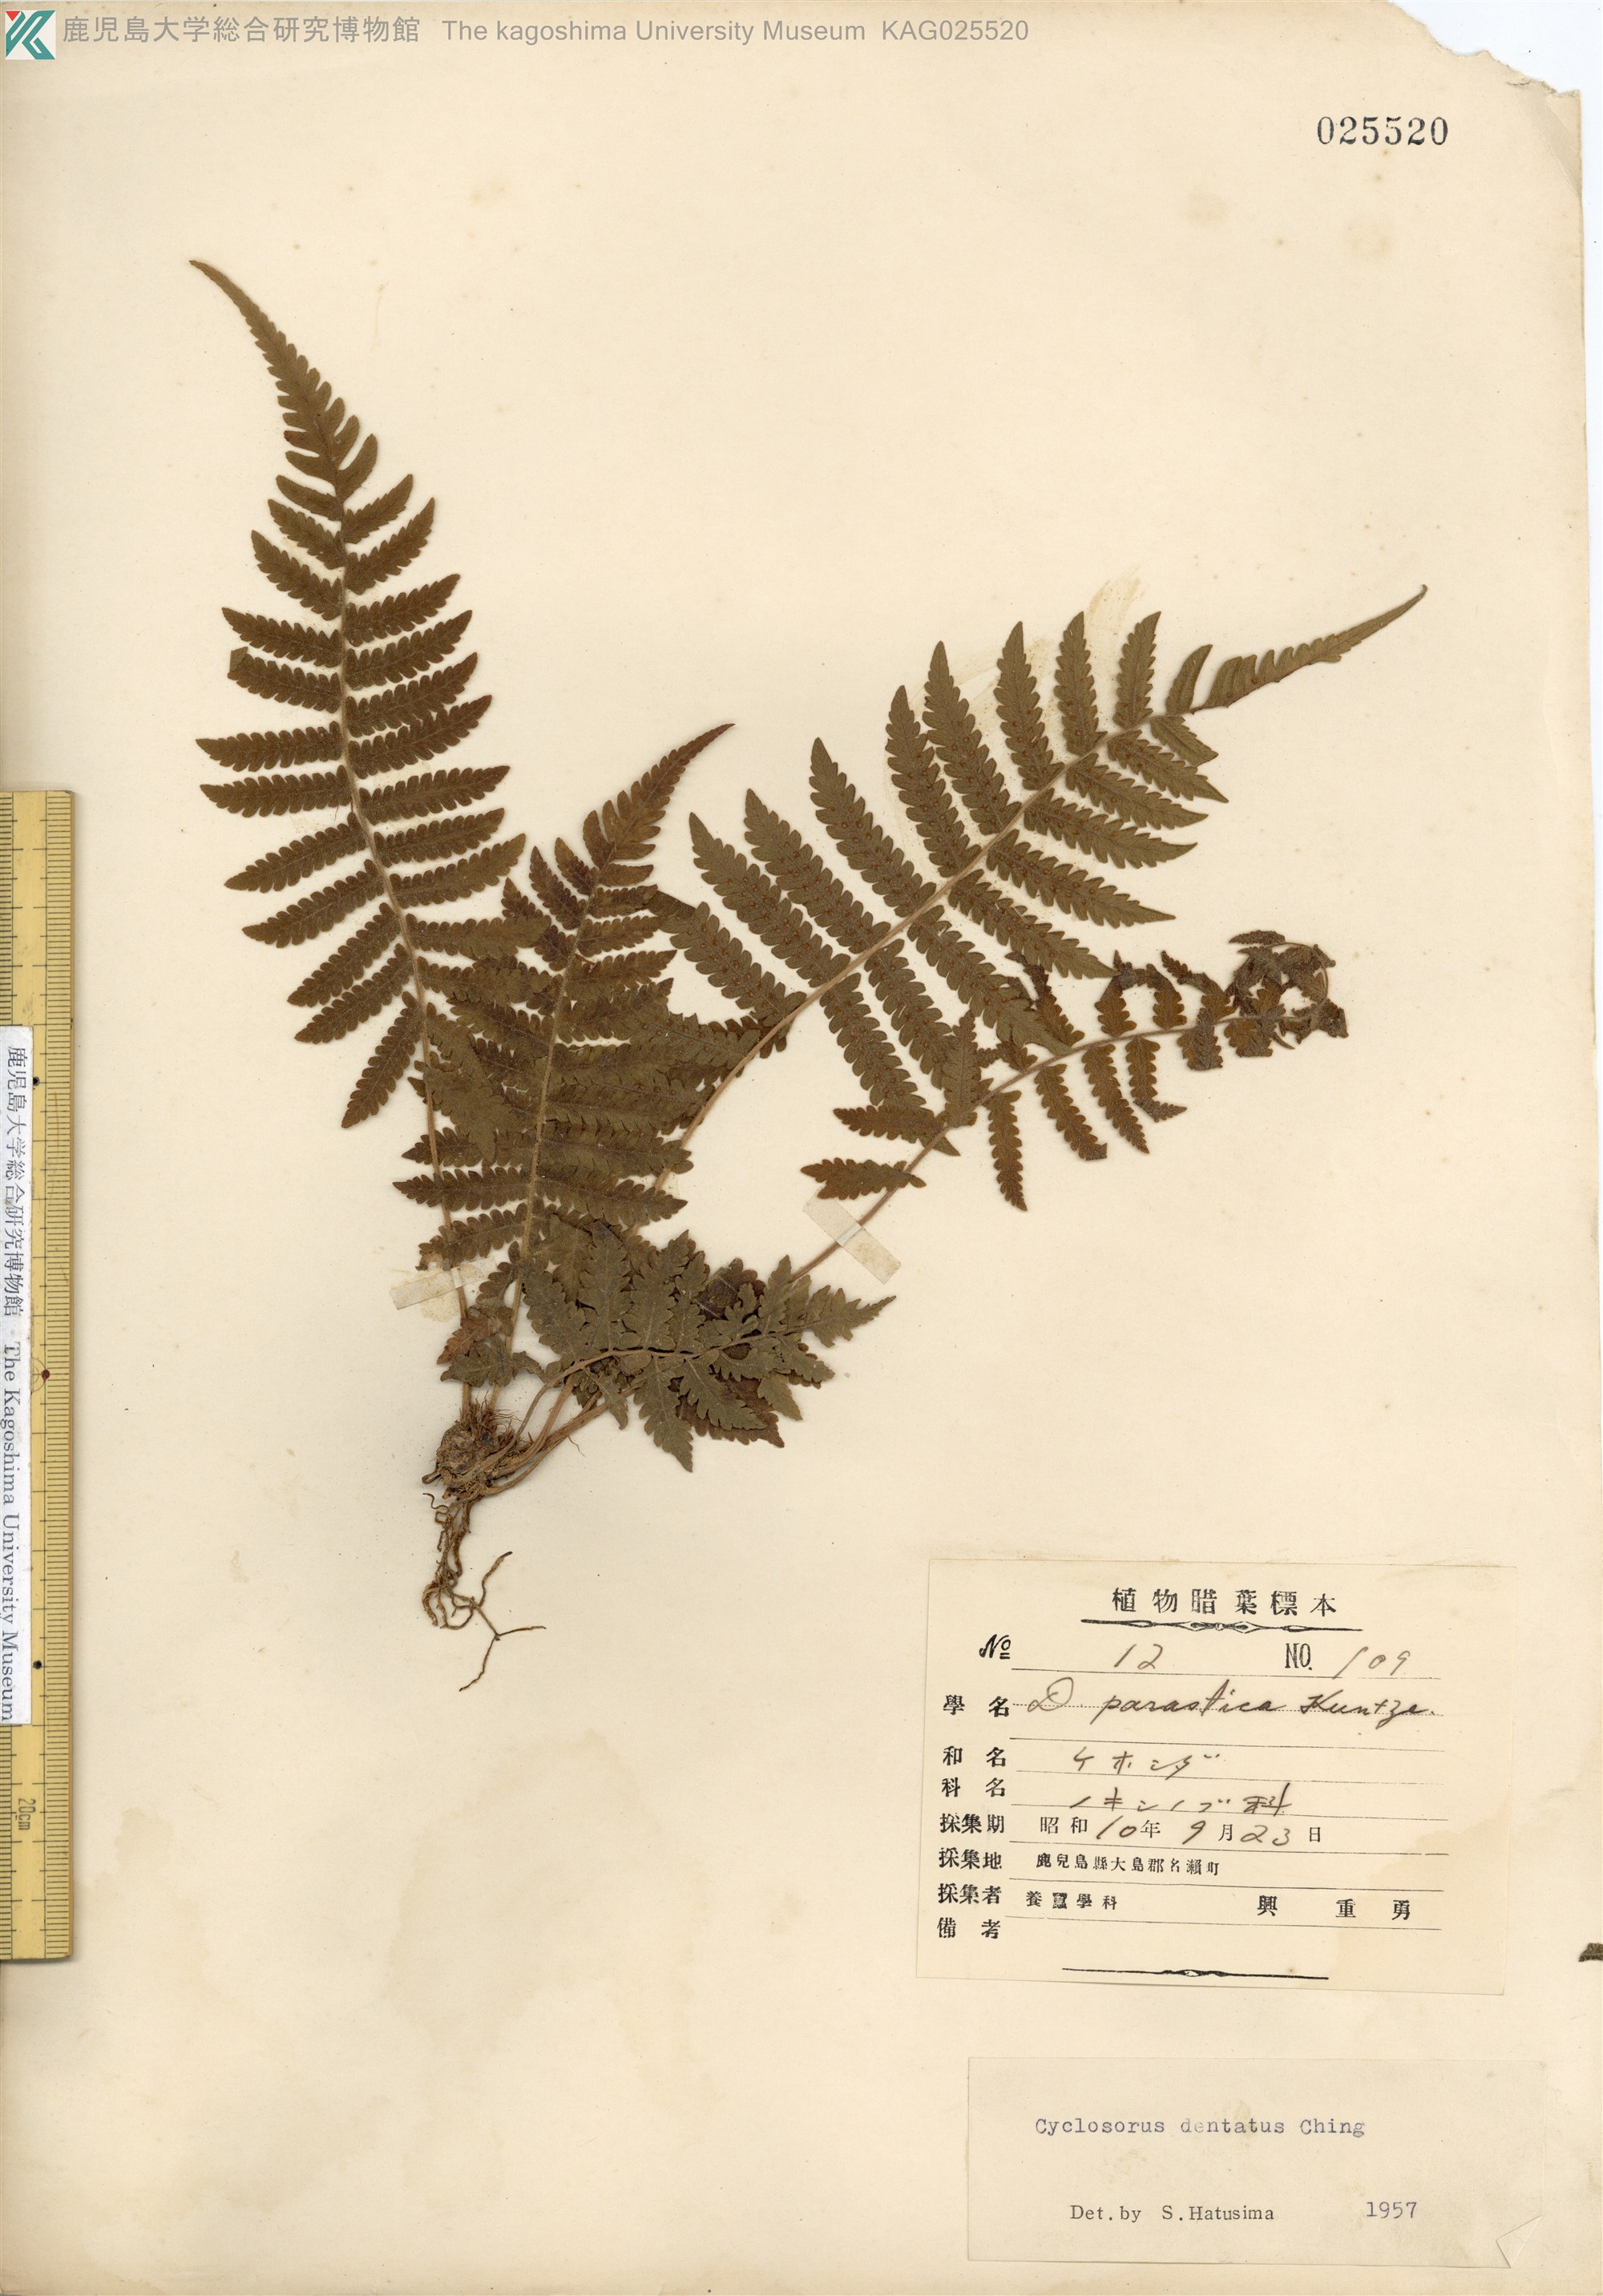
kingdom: Plantae
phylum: Tracheophyta
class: Polypodiopsida
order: Polypodiales
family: Thelypteridaceae
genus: Christella
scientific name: Christella dentata
